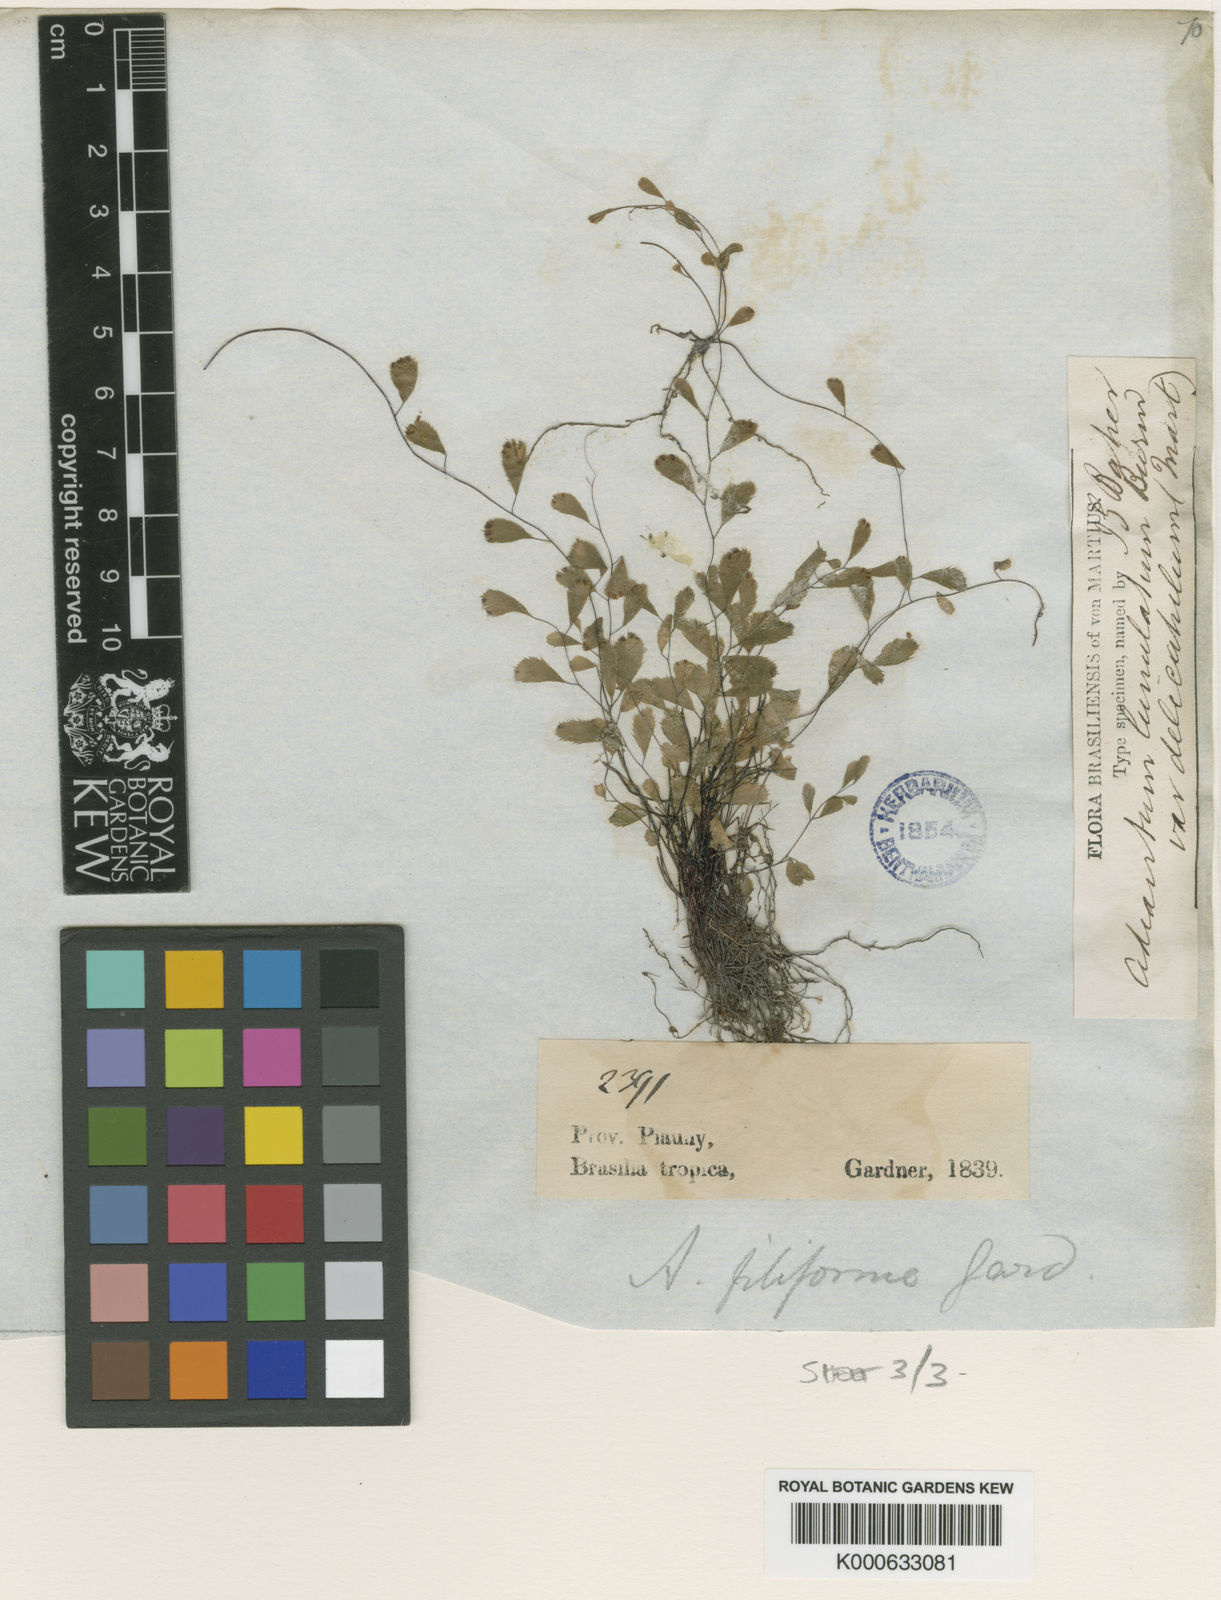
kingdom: Plantae
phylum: Tracheophyta
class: Polypodiopsida
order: Polypodiales
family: Pteridaceae
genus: Adiantum
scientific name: Adiantum delicatulum
